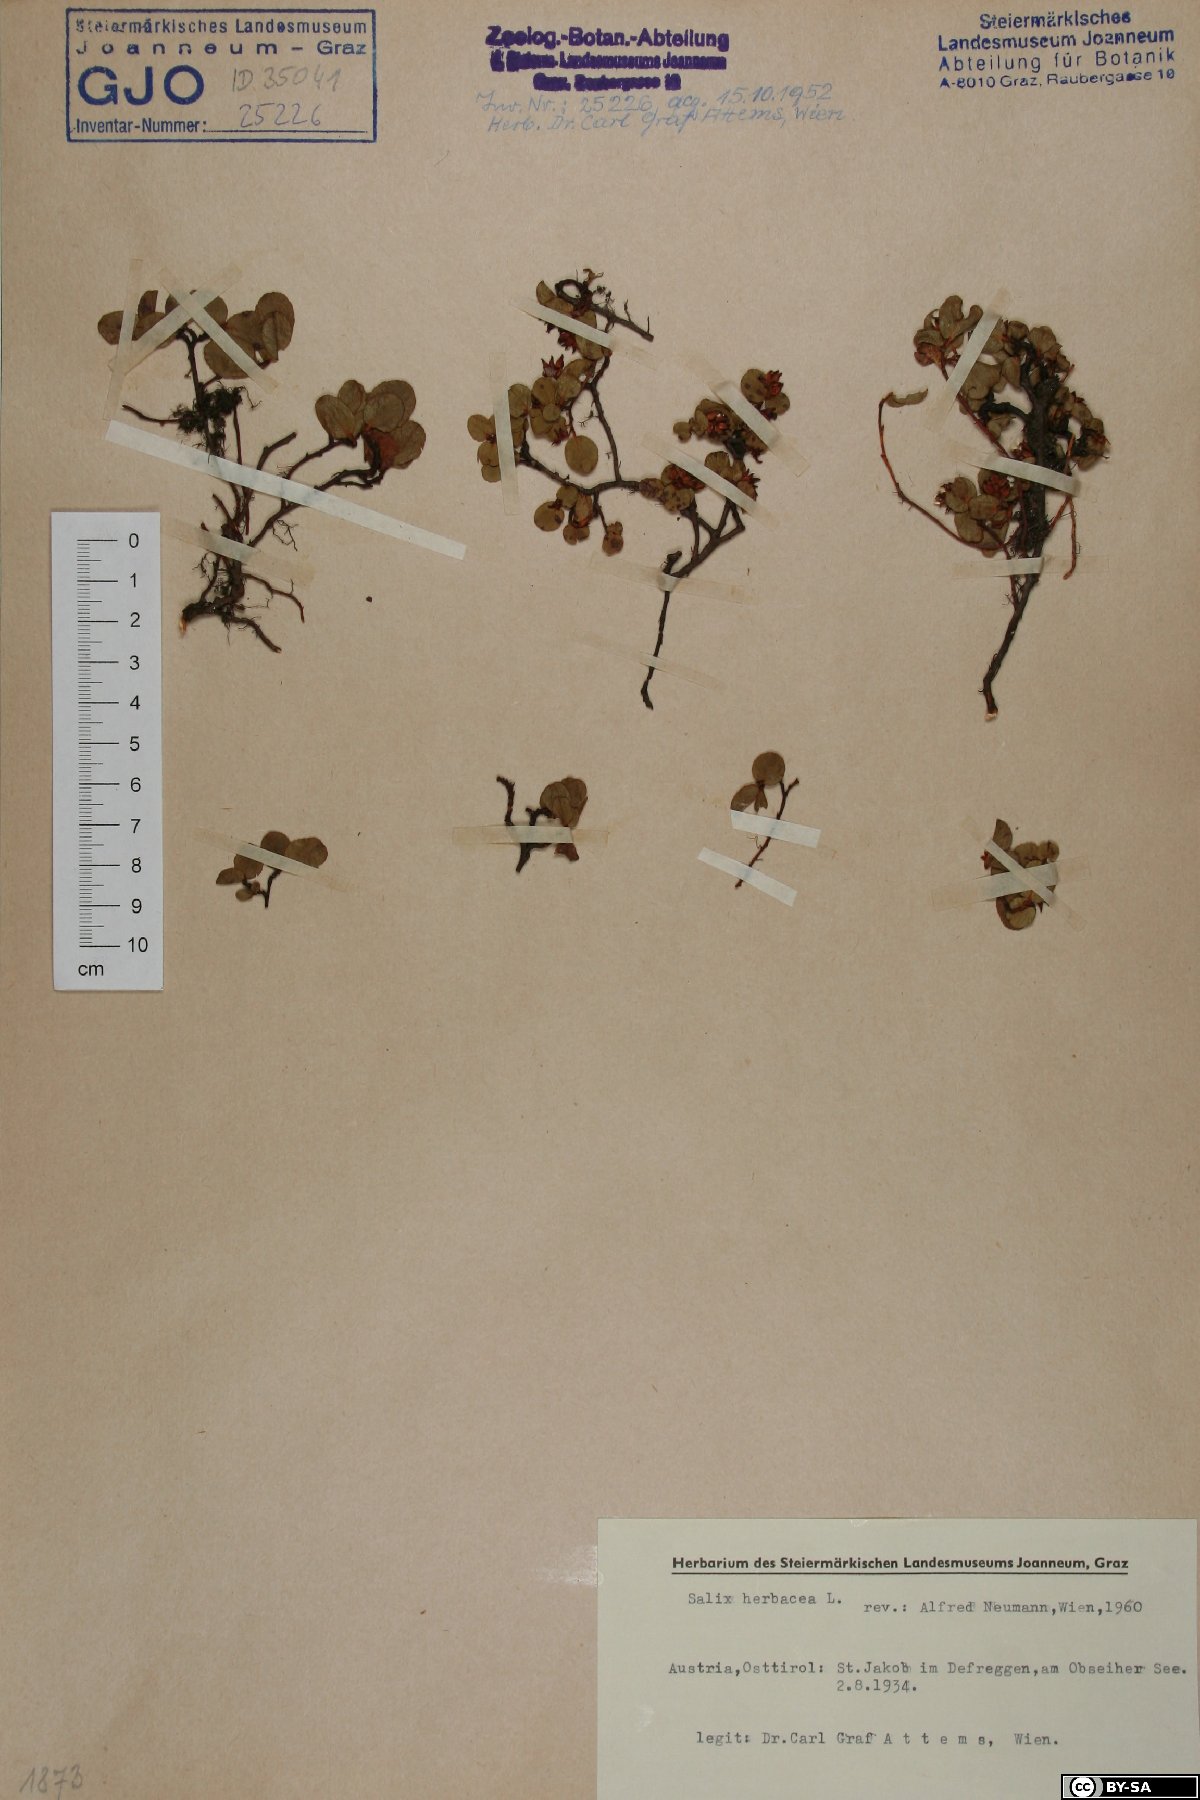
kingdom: Plantae
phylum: Tracheophyta
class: Magnoliopsida
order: Malpighiales
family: Salicaceae
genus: Salix
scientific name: Salix herbacea
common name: Dwarf willow
